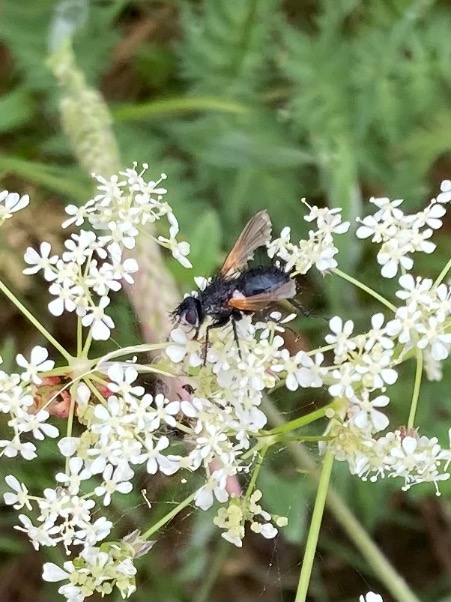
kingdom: Animalia
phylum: Arthropoda
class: Insecta
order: Diptera
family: Tachinidae
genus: Zophomyia
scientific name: Zophomyia temula
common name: Gulvinget snylteflue
